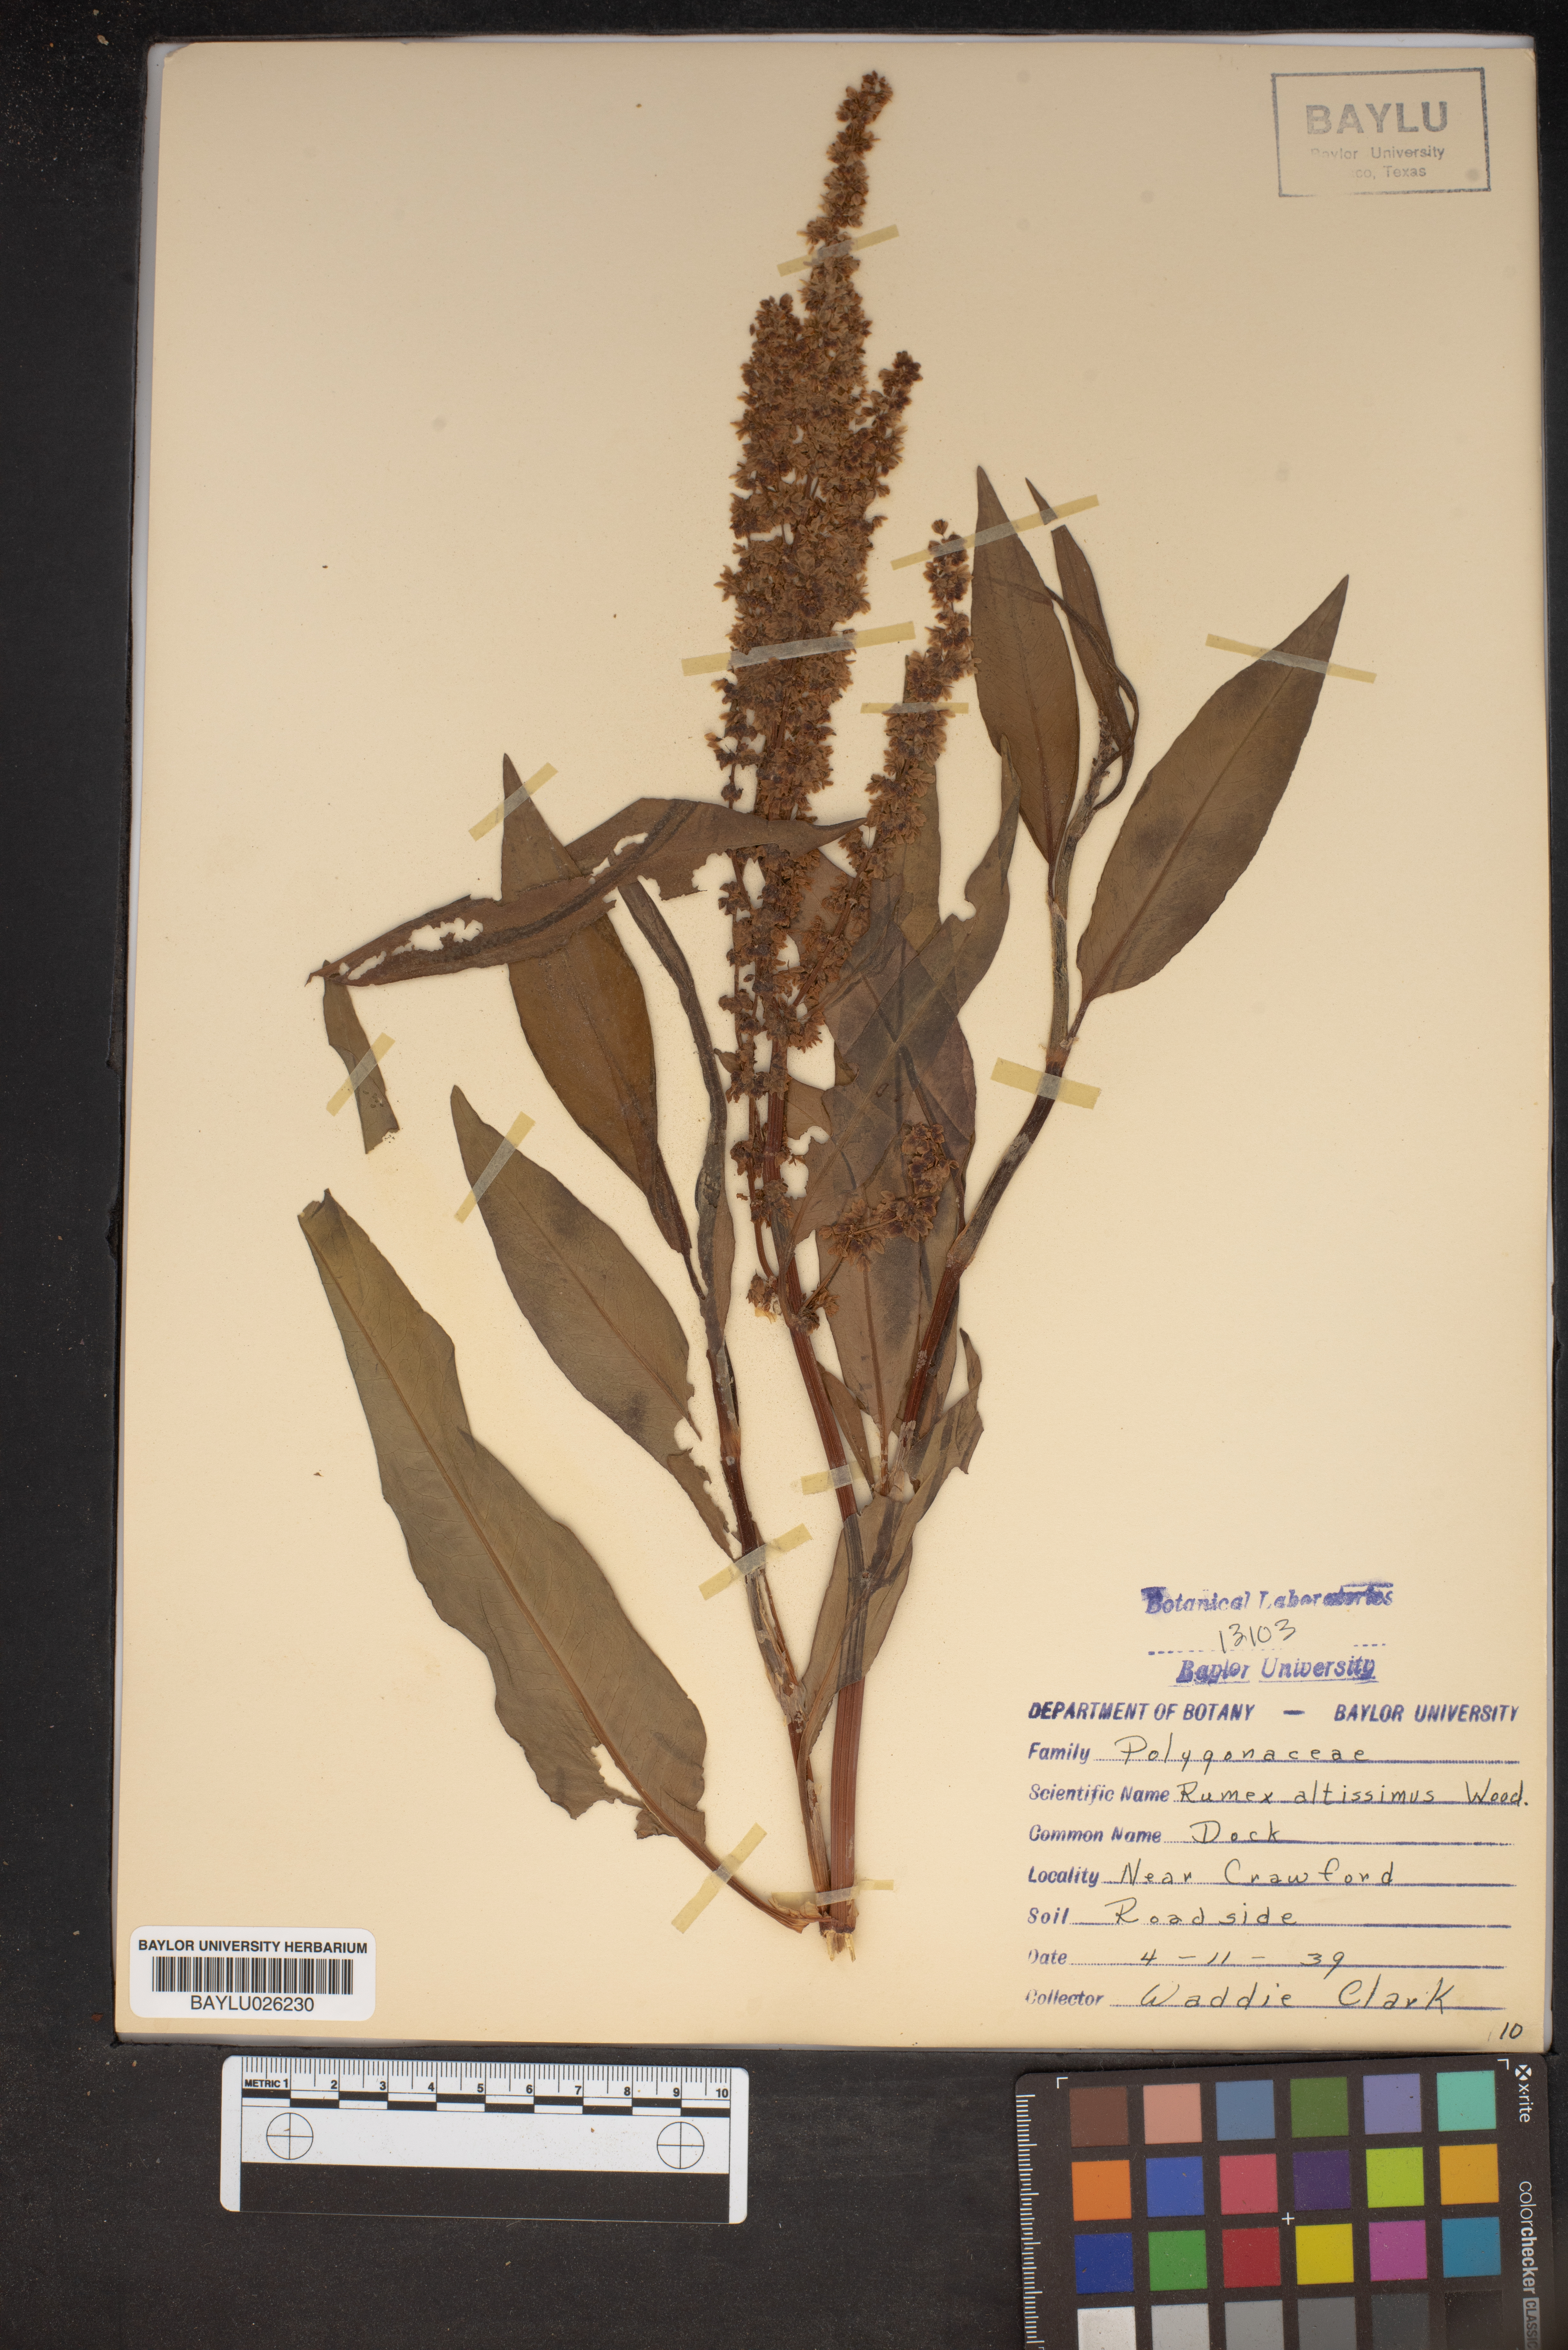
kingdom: Plantae
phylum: Tracheophyta
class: Magnoliopsida
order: Caryophyllales
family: Polygonaceae
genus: Rumex
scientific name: Rumex altissimus
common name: Smooth dock
